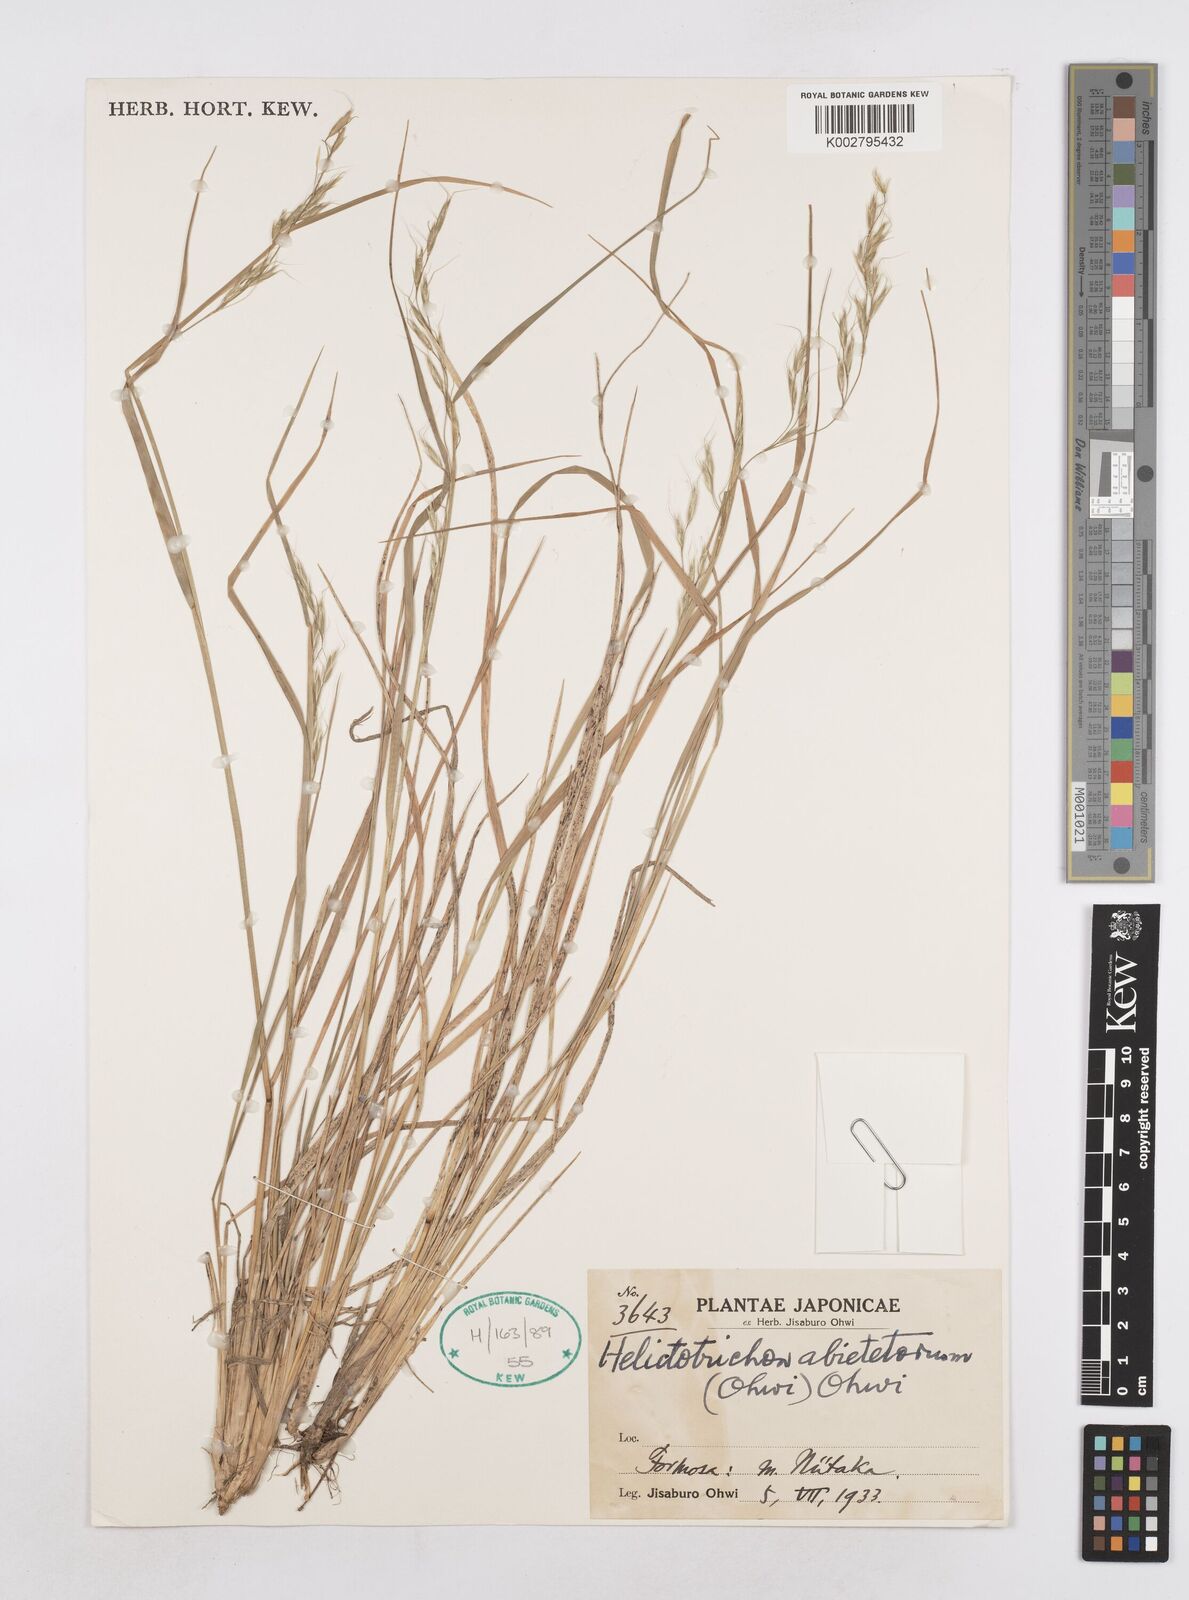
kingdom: Plantae
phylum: Tracheophyta
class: Liliopsida
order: Poales
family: Poaceae
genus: Helictotrichon
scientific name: Helictotrichon hideoi
